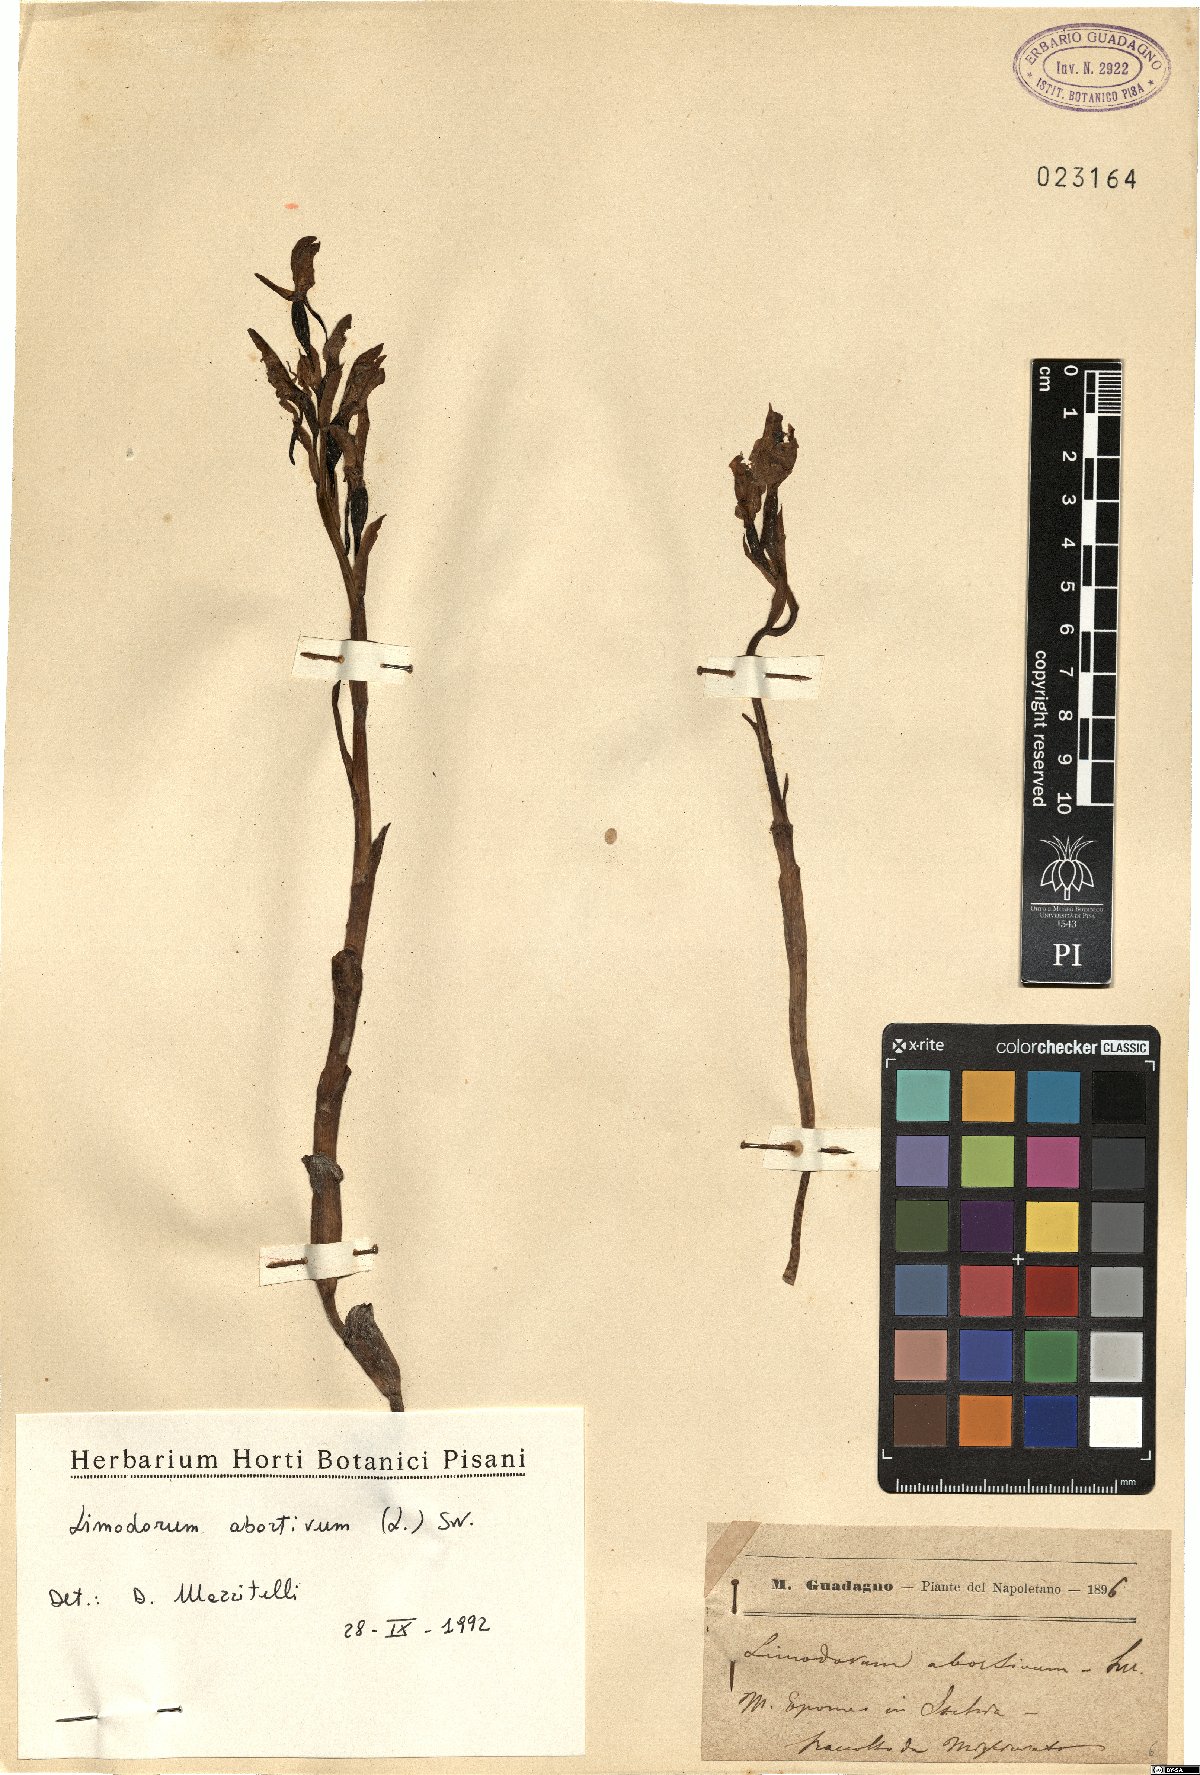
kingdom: Plantae
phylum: Tracheophyta
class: Liliopsida
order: Asparagales
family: Orchidaceae
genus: Limodorum
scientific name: Limodorum abortivum
